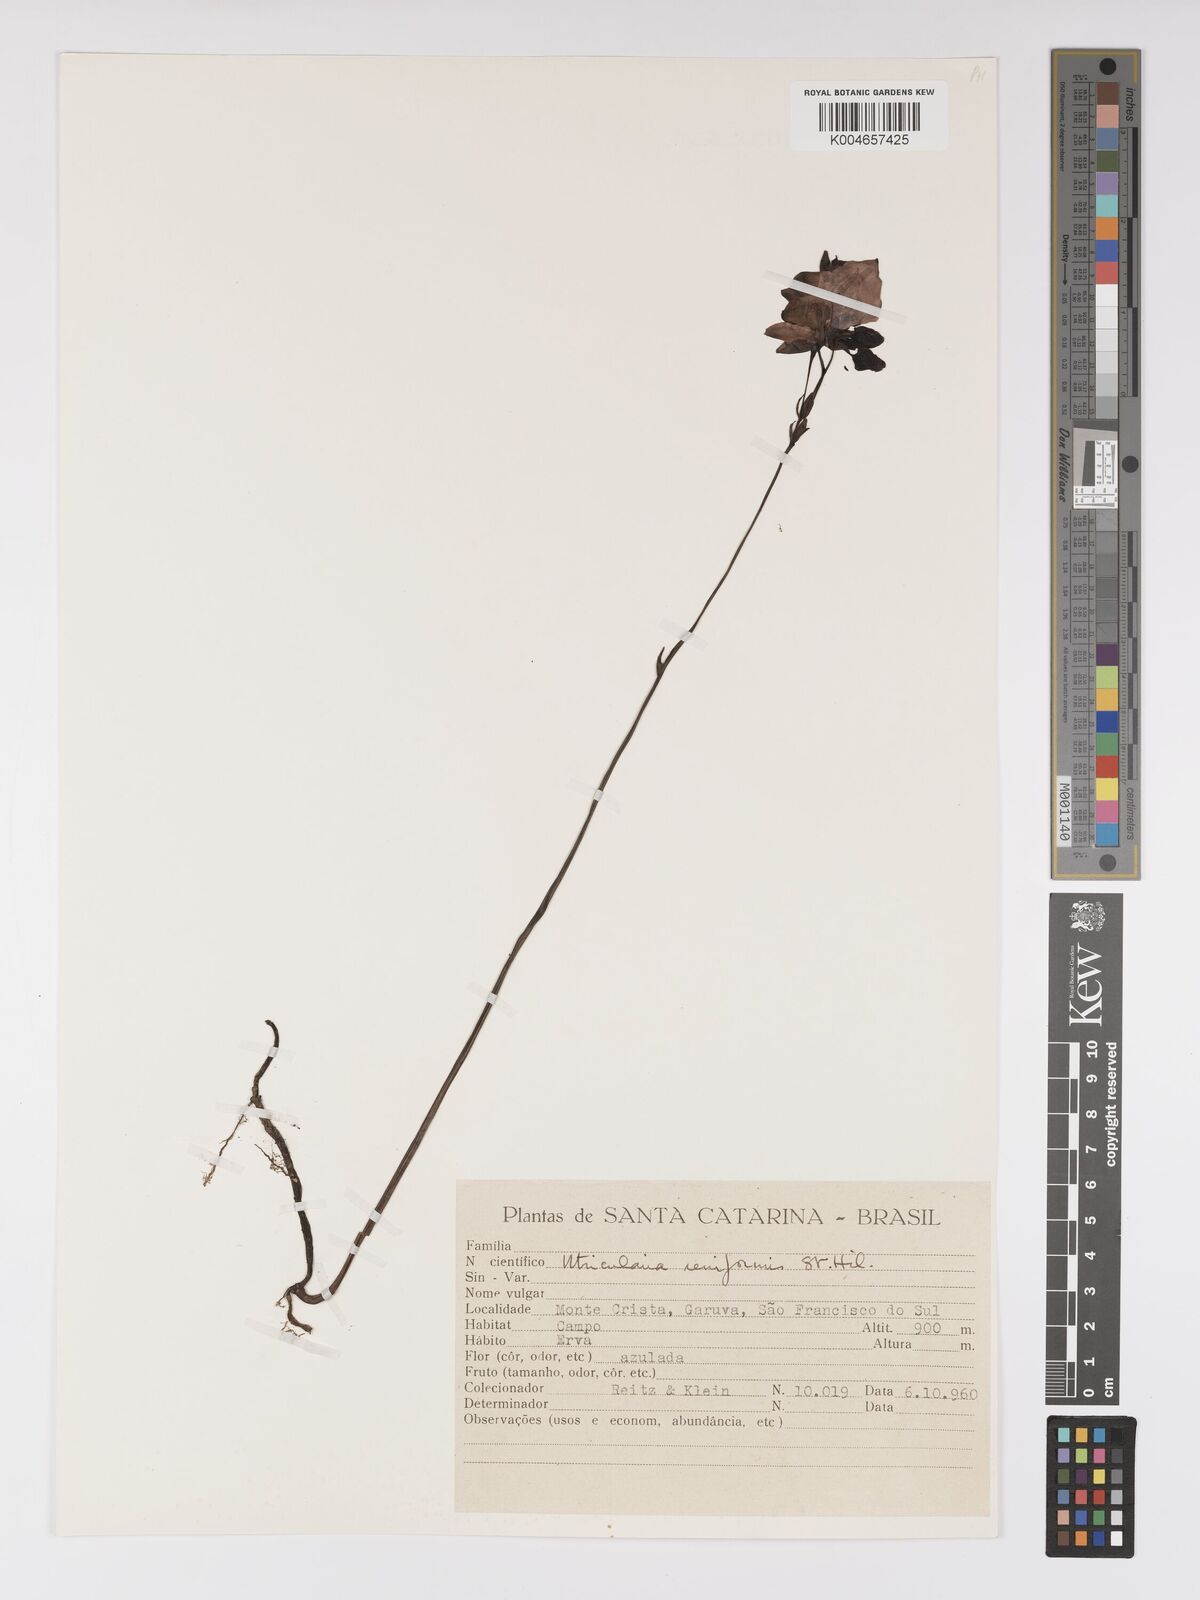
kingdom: Plantae
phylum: Tracheophyta
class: Magnoliopsida
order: Lamiales
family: Lentibulariaceae
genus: Utricularia
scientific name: Utricularia reniformis
